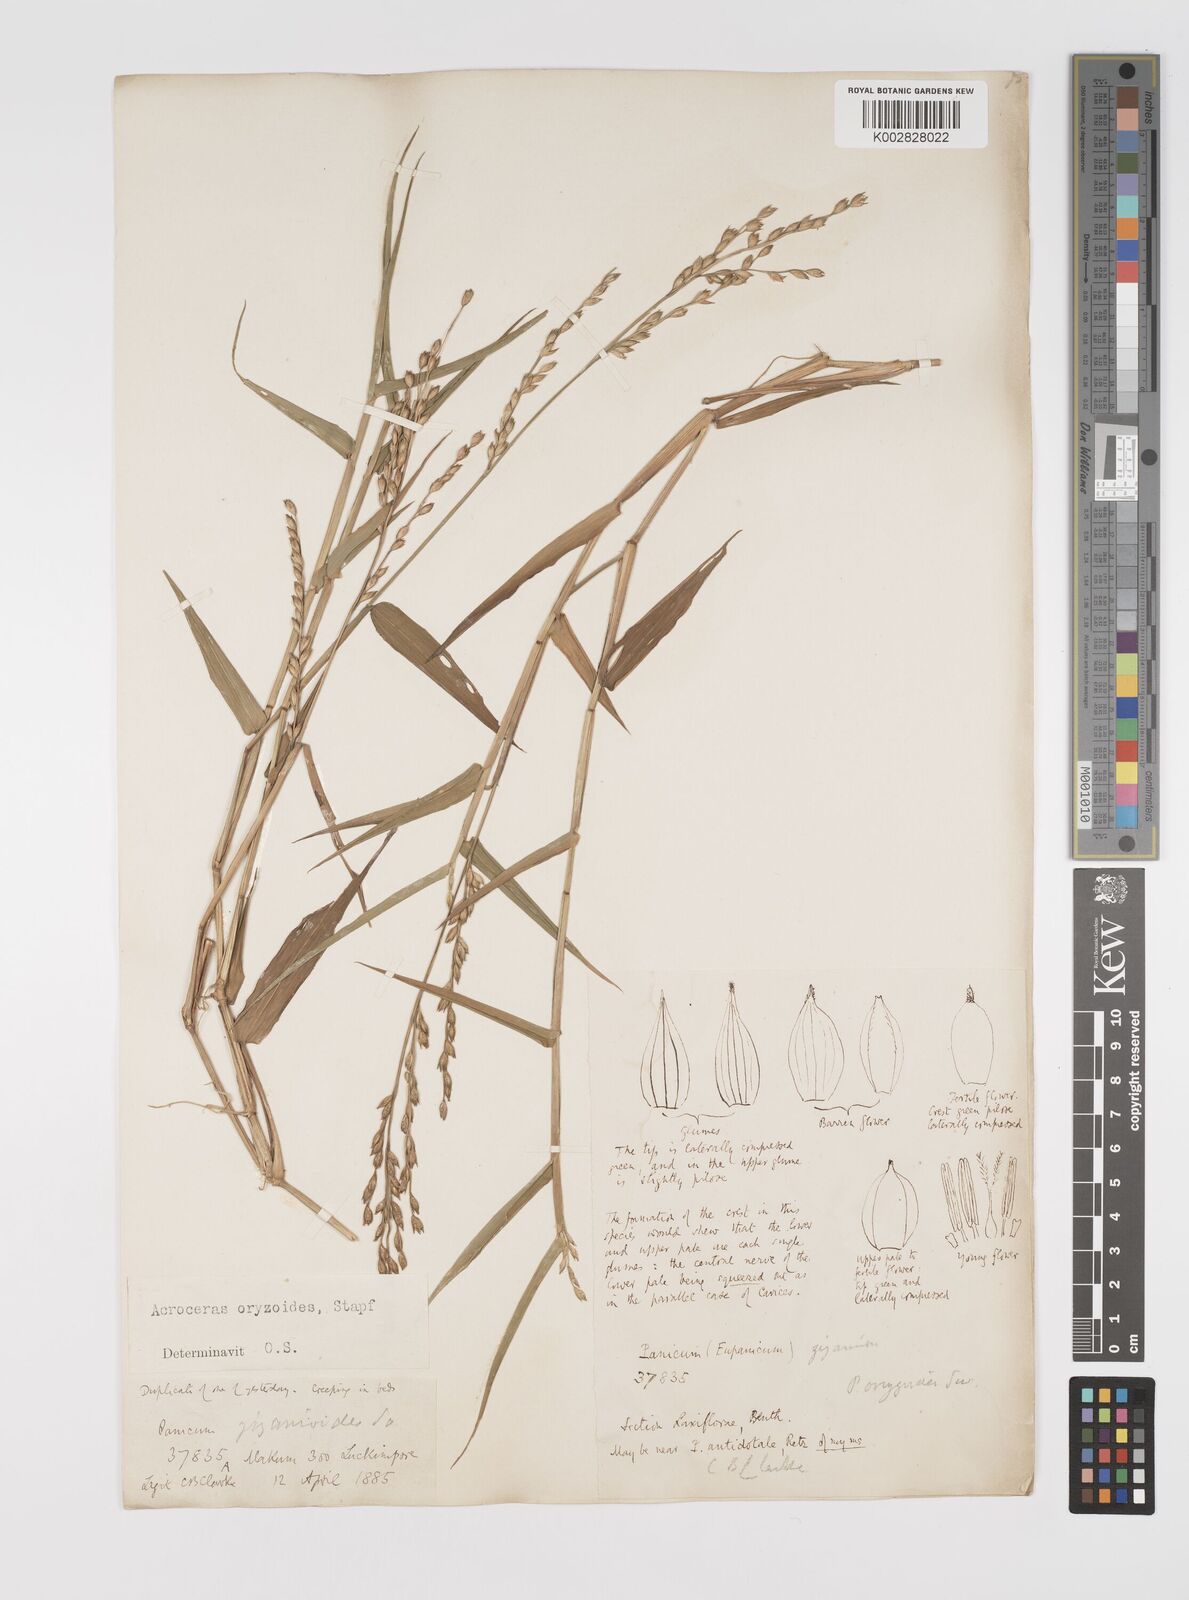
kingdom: Plantae
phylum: Tracheophyta
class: Liliopsida
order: Poales
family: Poaceae
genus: Acroceras
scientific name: Acroceras
